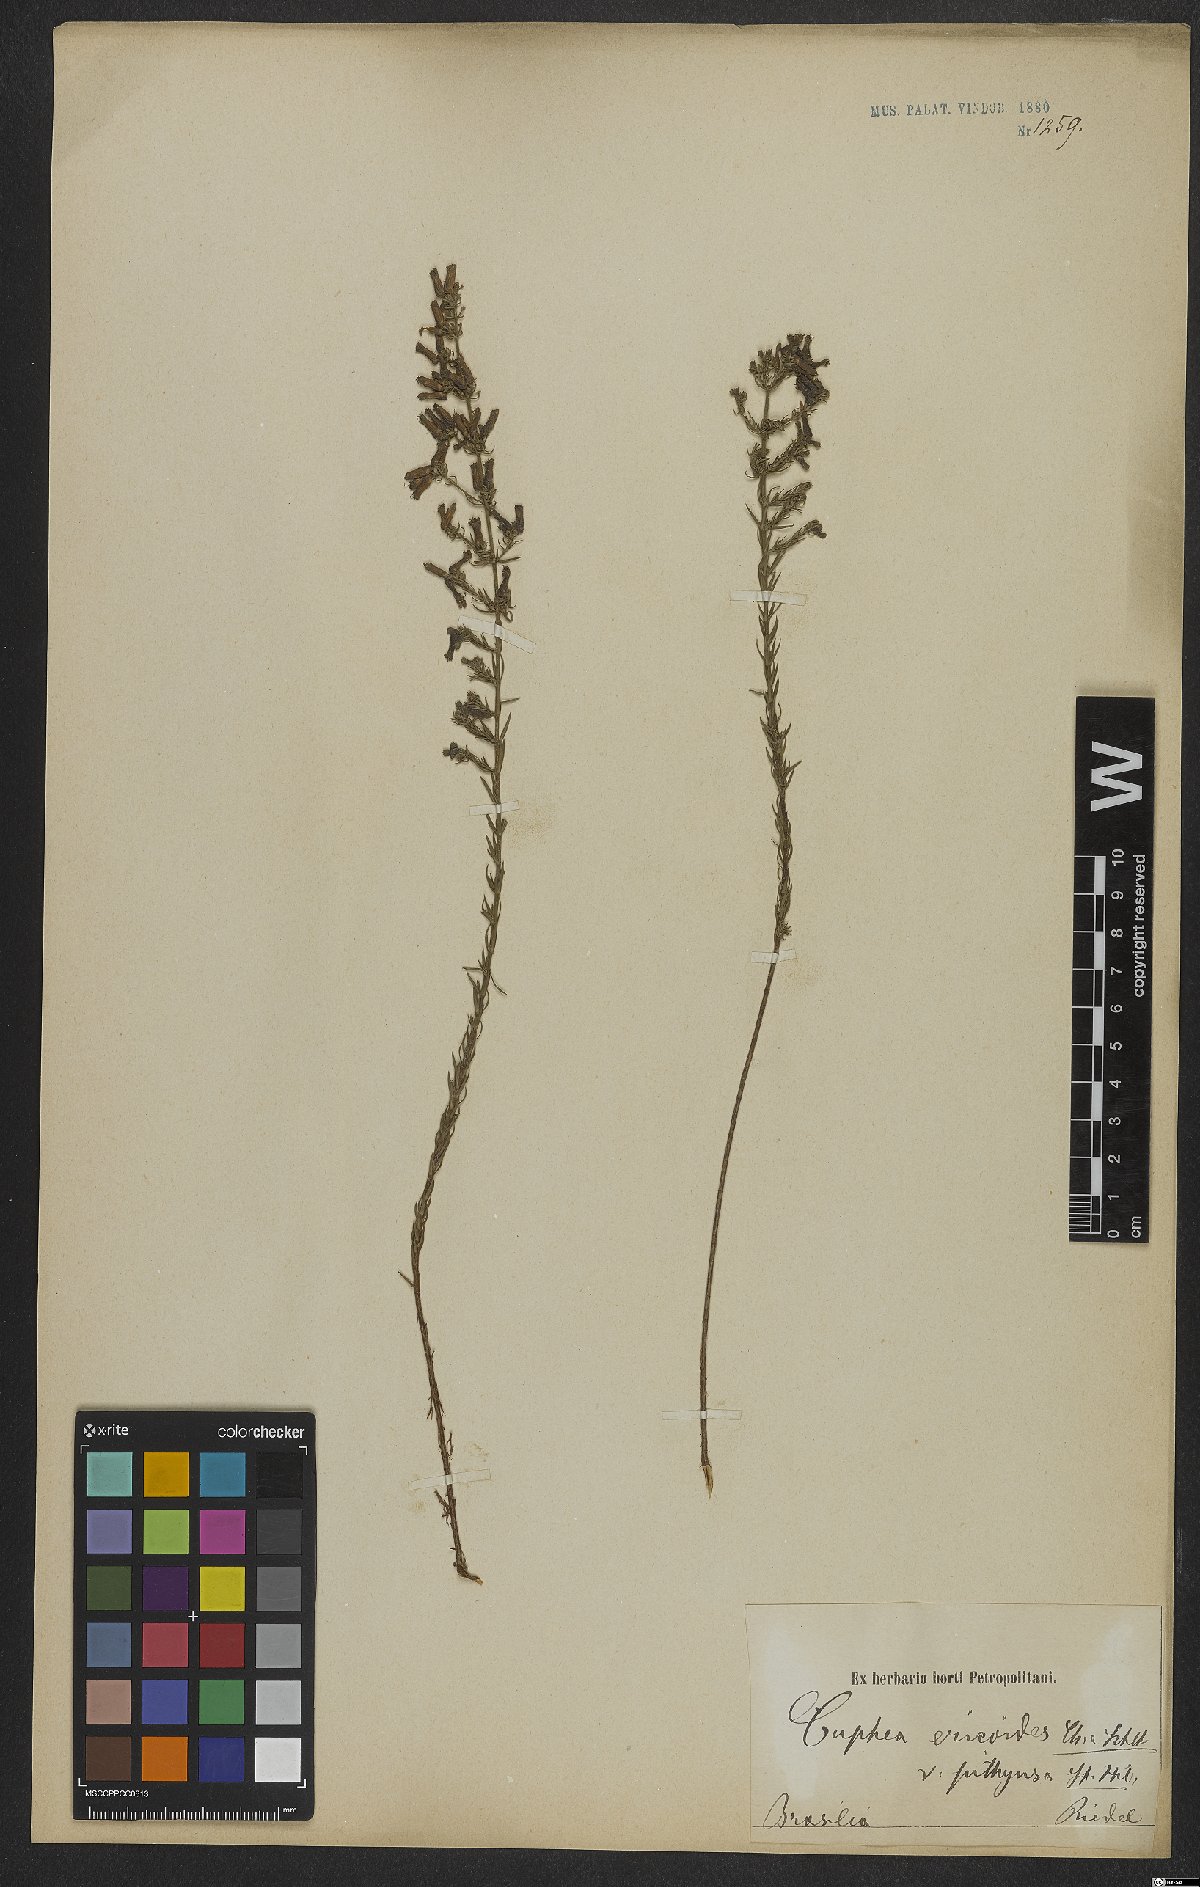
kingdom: Plantae
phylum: Tracheophyta
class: Magnoliopsida
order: Myrtales
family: Lythraceae
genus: Cuphea
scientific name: Cuphea ericoides
